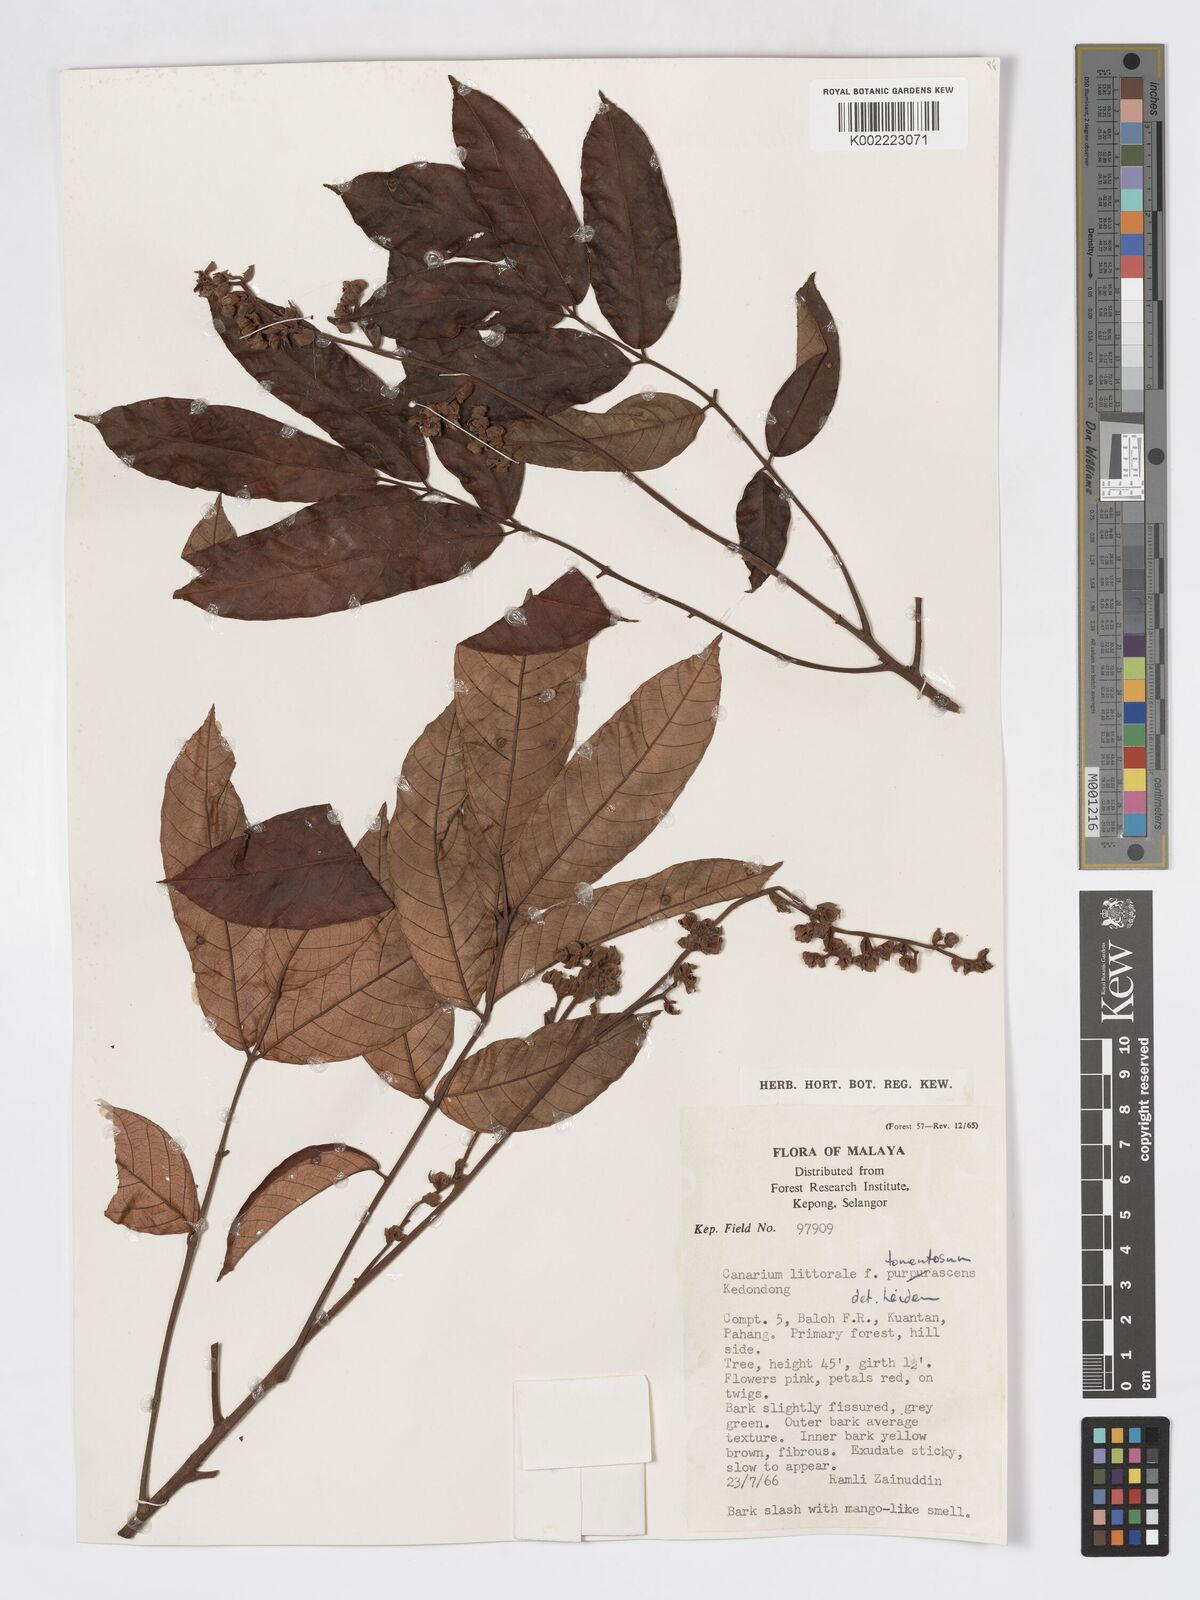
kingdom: Plantae
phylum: Tracheophyta
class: Magnoliopsida
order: Sapindales
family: Burseraceae
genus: Canarium
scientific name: Canarium littorale
